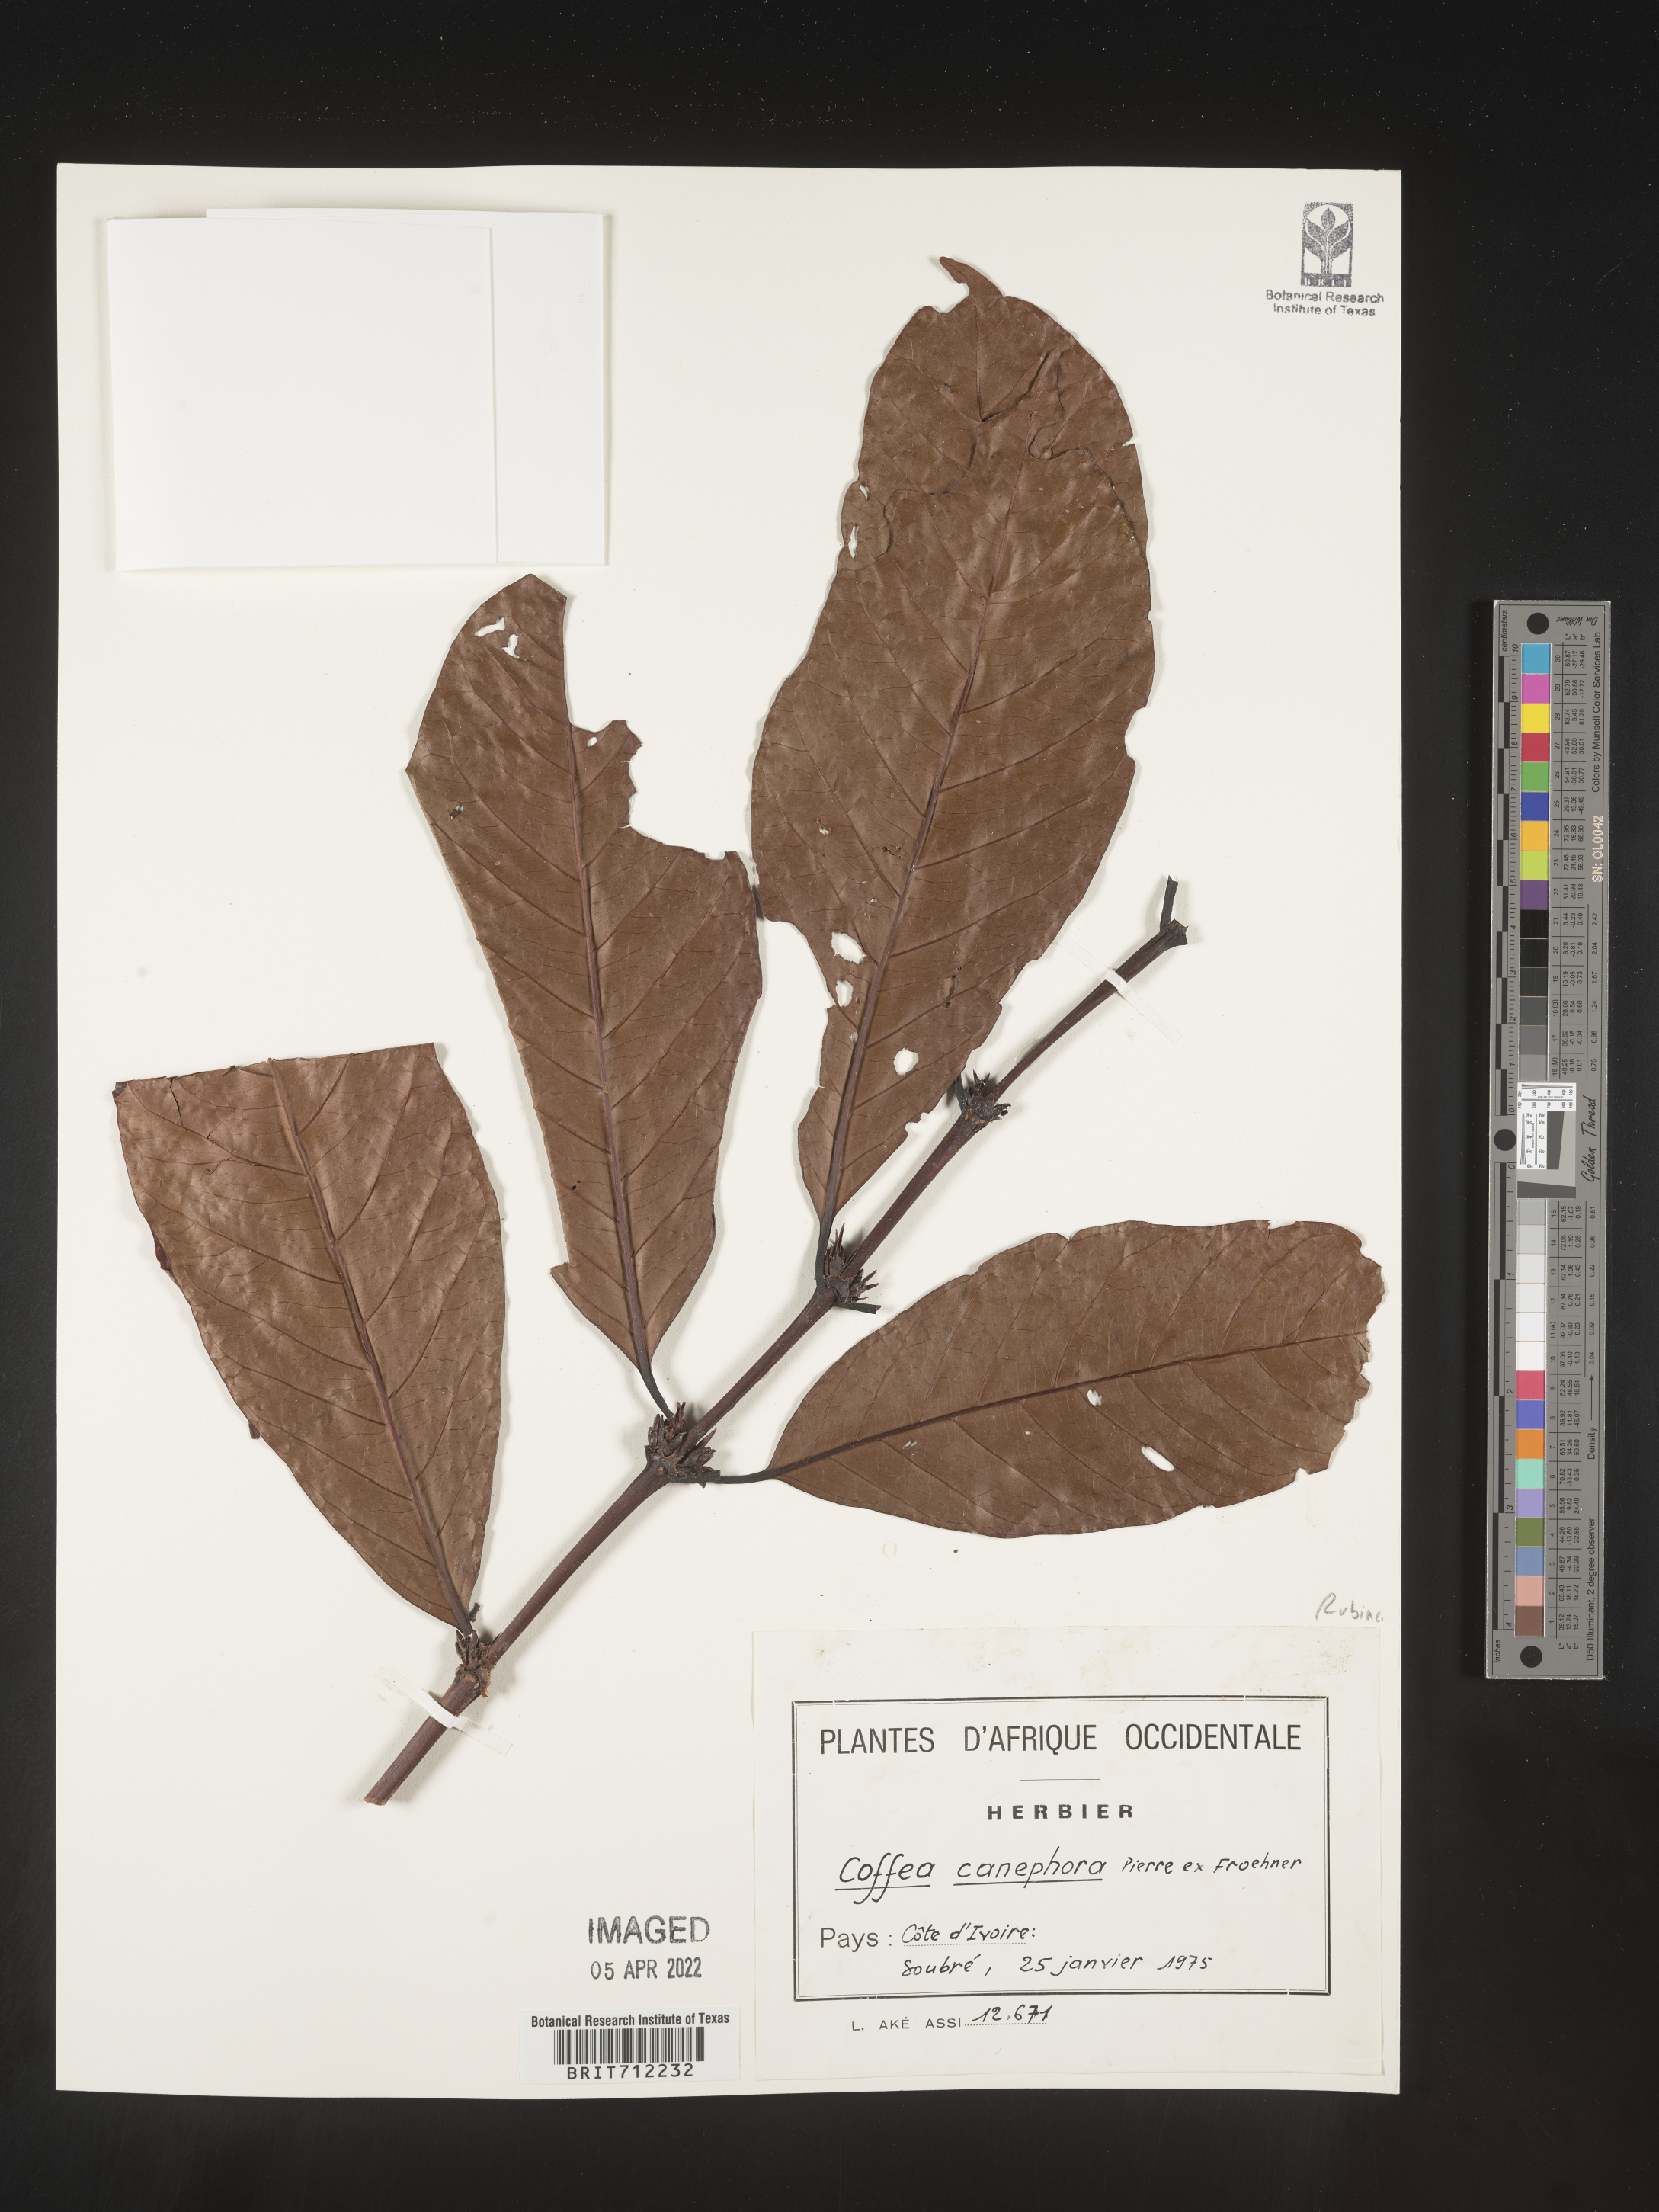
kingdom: Plantae
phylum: Tracheophyta
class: Magnoliopsida
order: Gentianales
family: Rubiaceae
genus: Coffea
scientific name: Coffea
